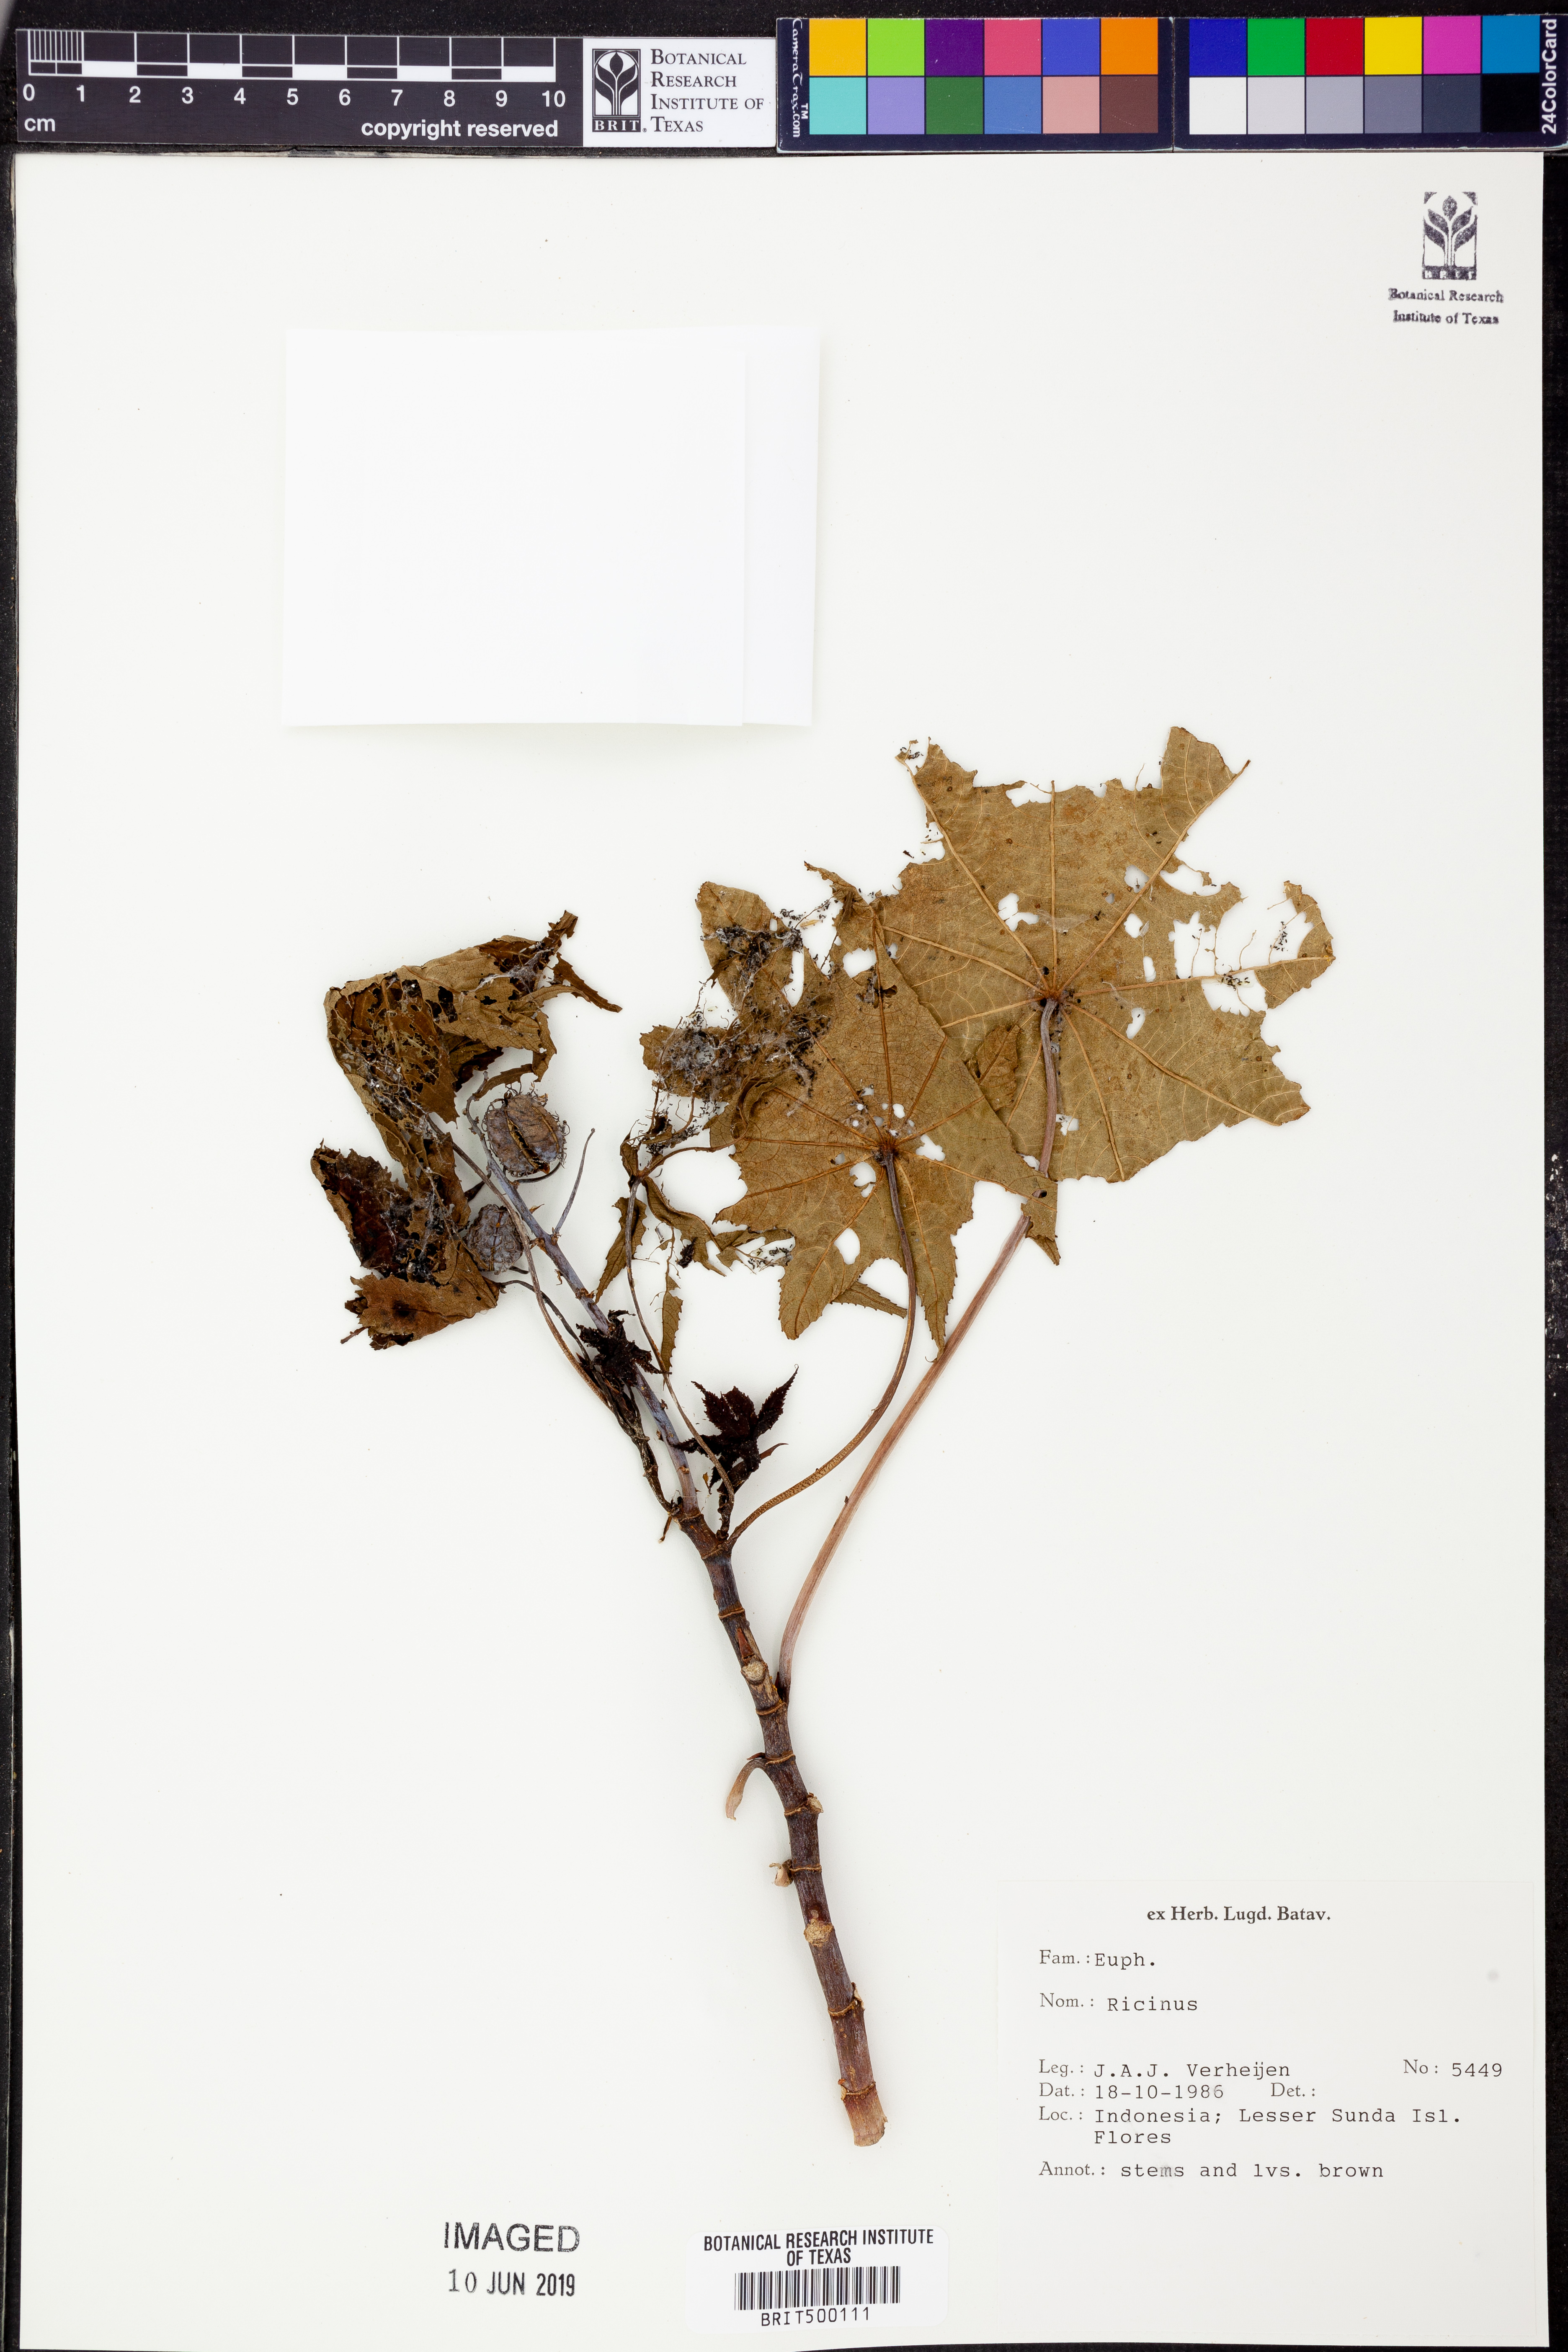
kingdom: Plantae
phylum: Tracheophyta
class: Magnoliopsida
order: Malpighiales
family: Euphorbiaceae
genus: Ricinus
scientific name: Ricinus
